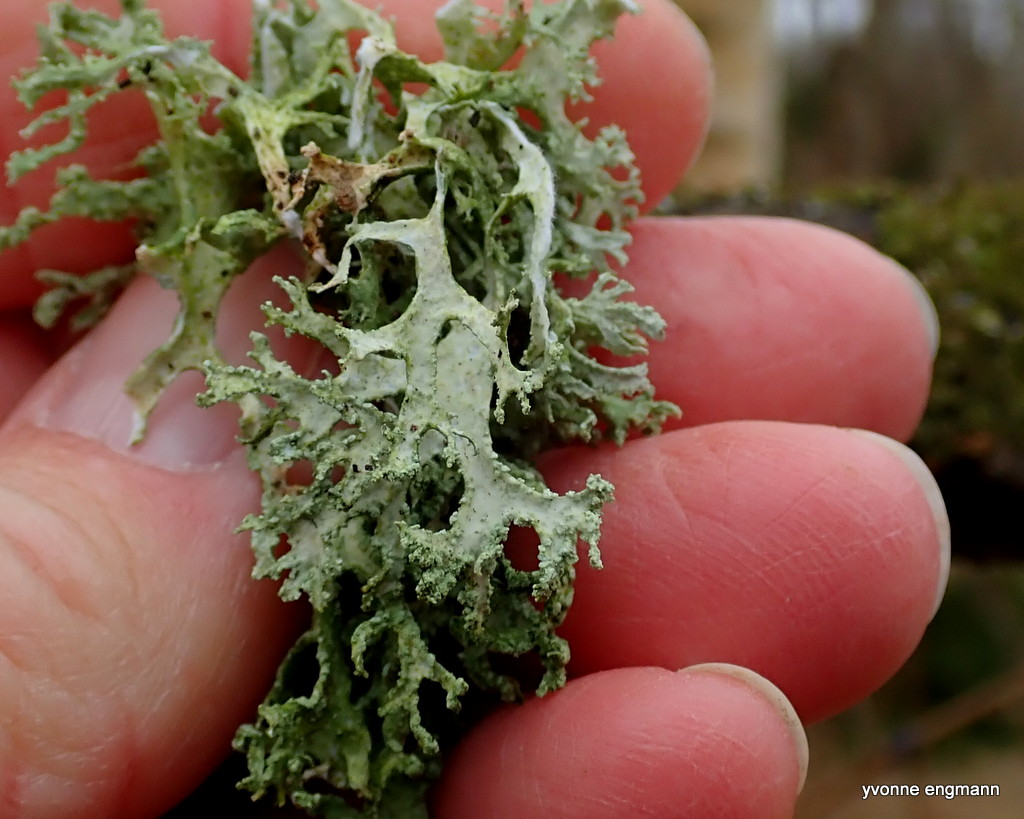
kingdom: Fungi
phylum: Ascomycota
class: Lecanoromycetes
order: Lecanorales
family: Parmeliaceae
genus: Evernia
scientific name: Evernia prunastri
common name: almindelig slåenlav
